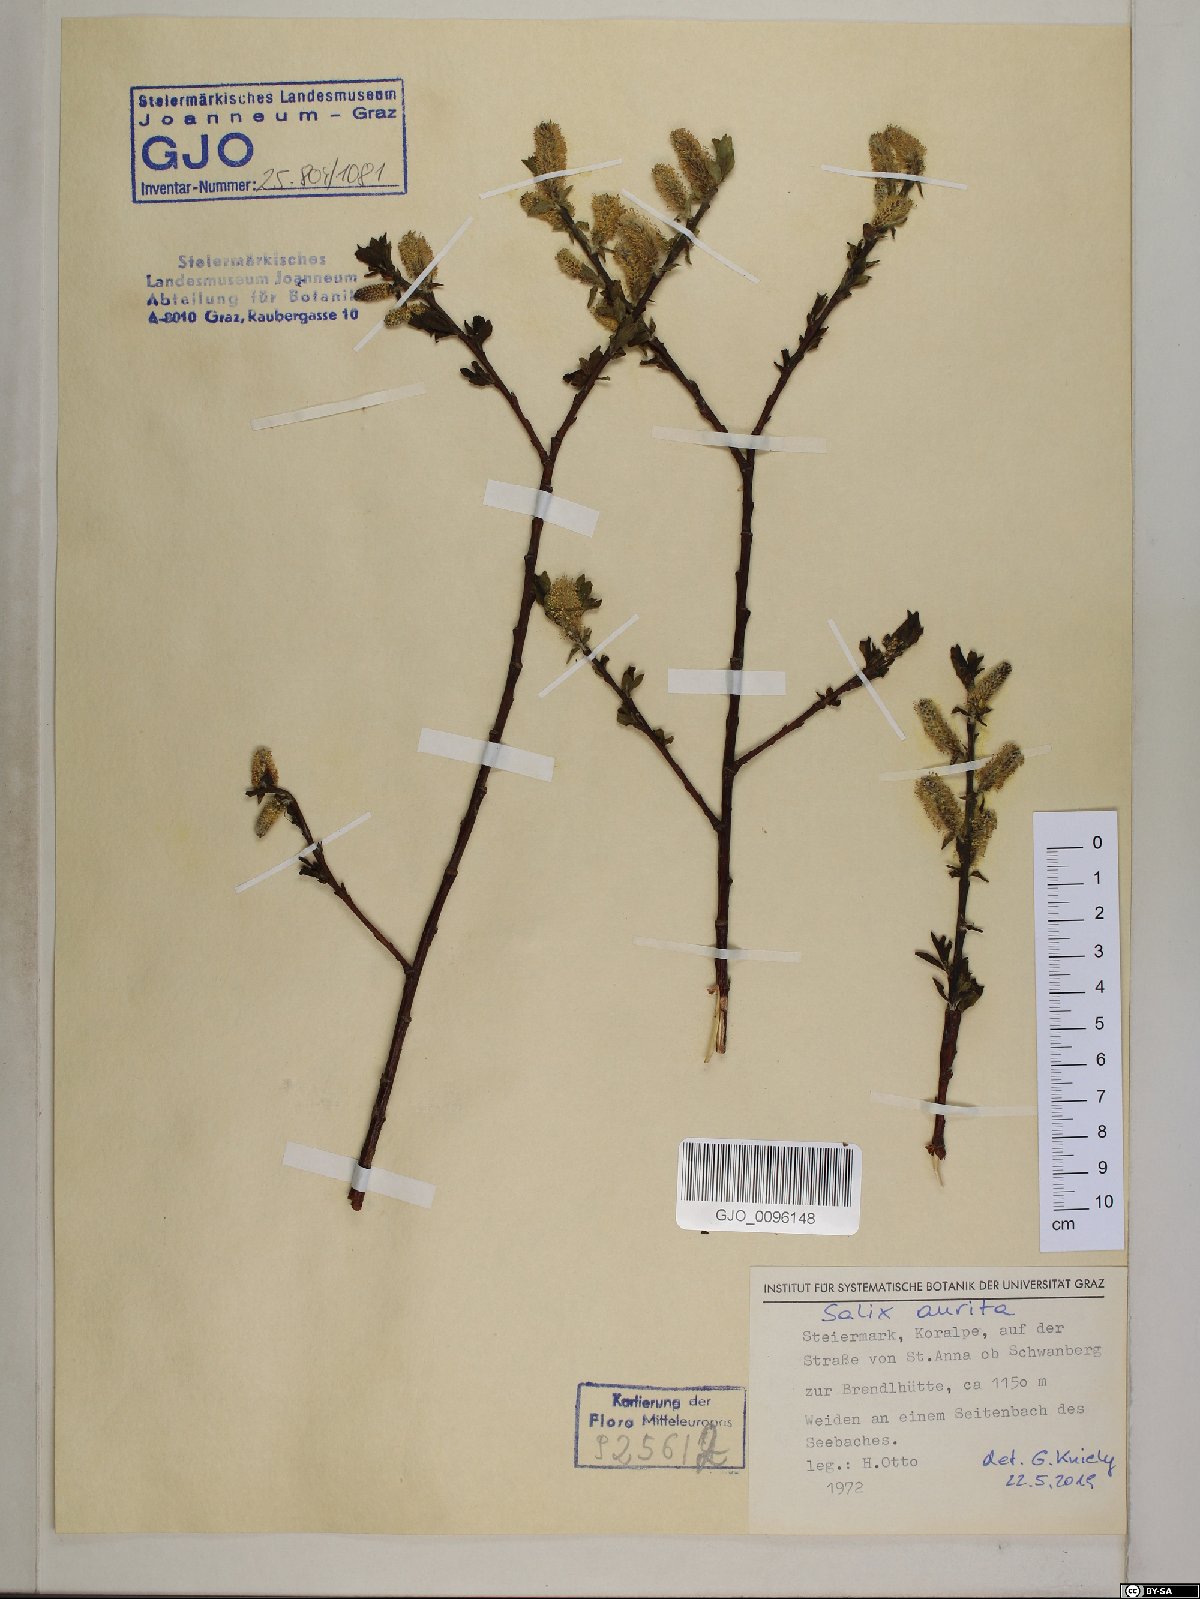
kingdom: Plantae
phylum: Tracheophyta
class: Magnoliopsida
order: Malpighiales
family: Salicaceae
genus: Salix
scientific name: Salix aurita
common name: Eared willow
